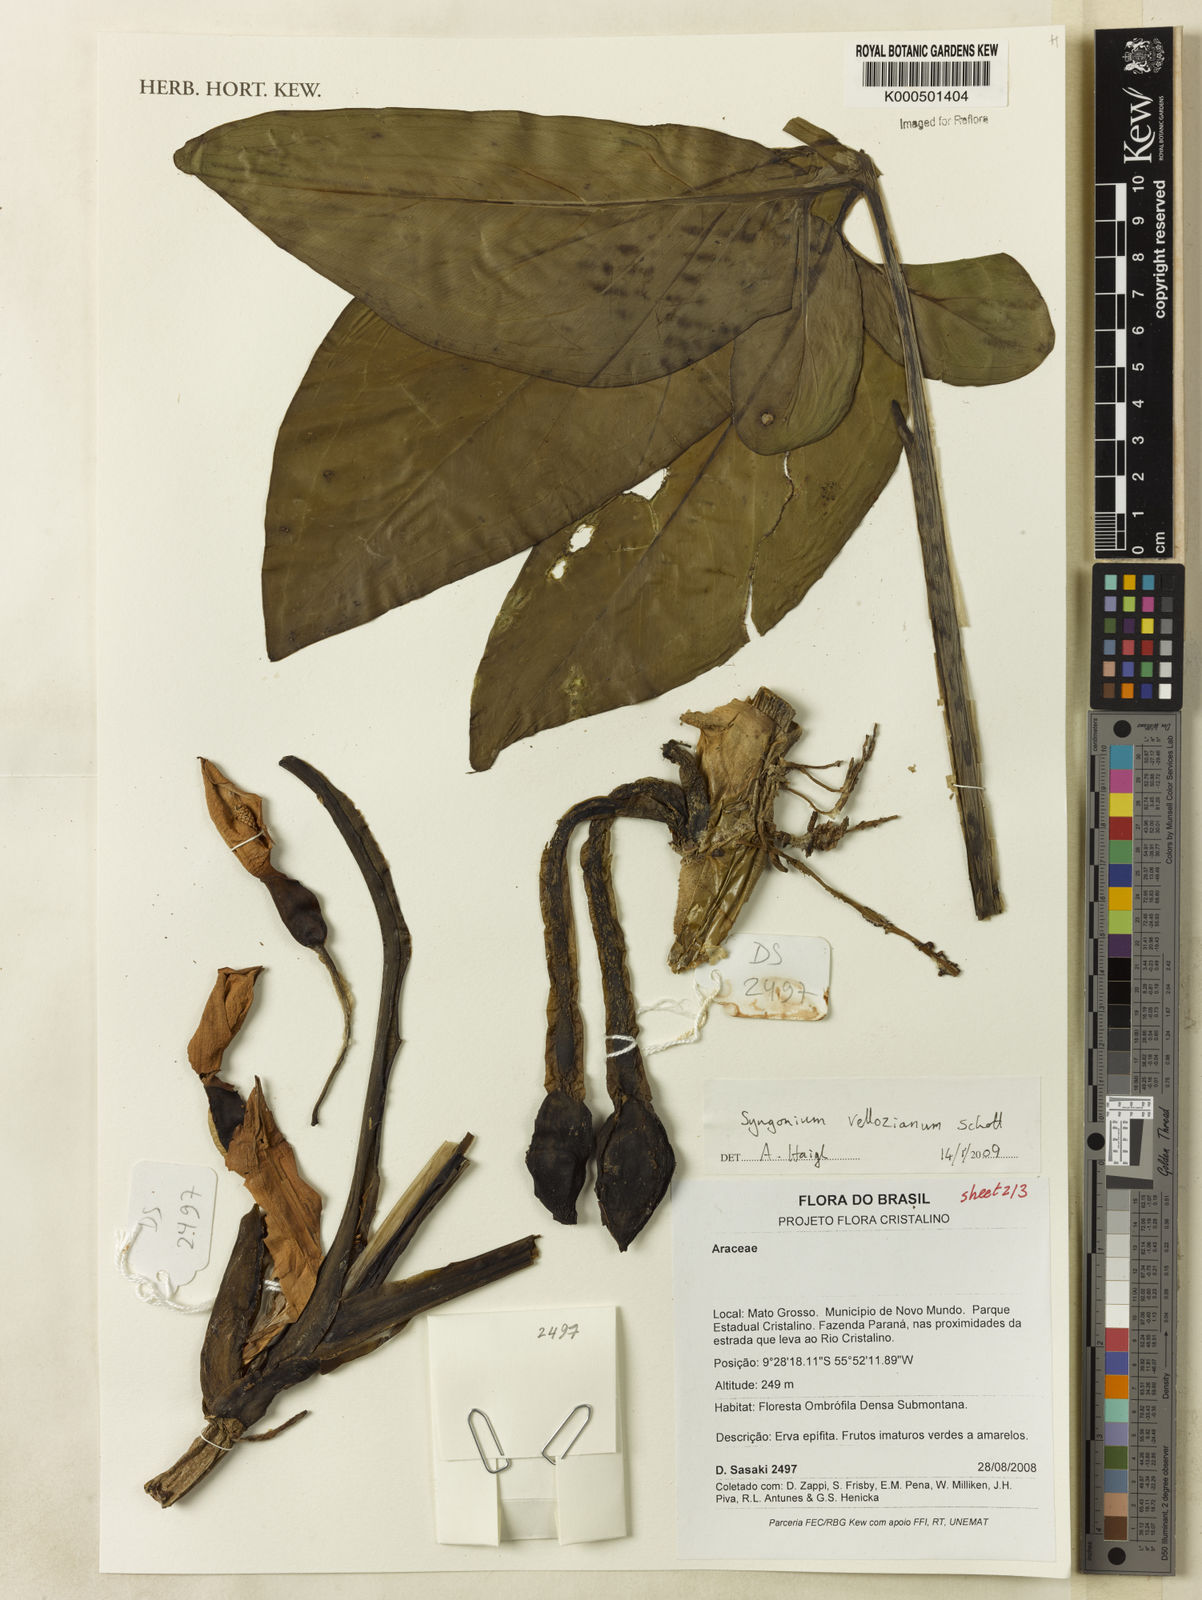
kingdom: Plantae
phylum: Tracheophyta
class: Liliopsida
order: Alismatales
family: Araceae
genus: Syngonium
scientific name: Syngonium podophyllum
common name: American evergreen
